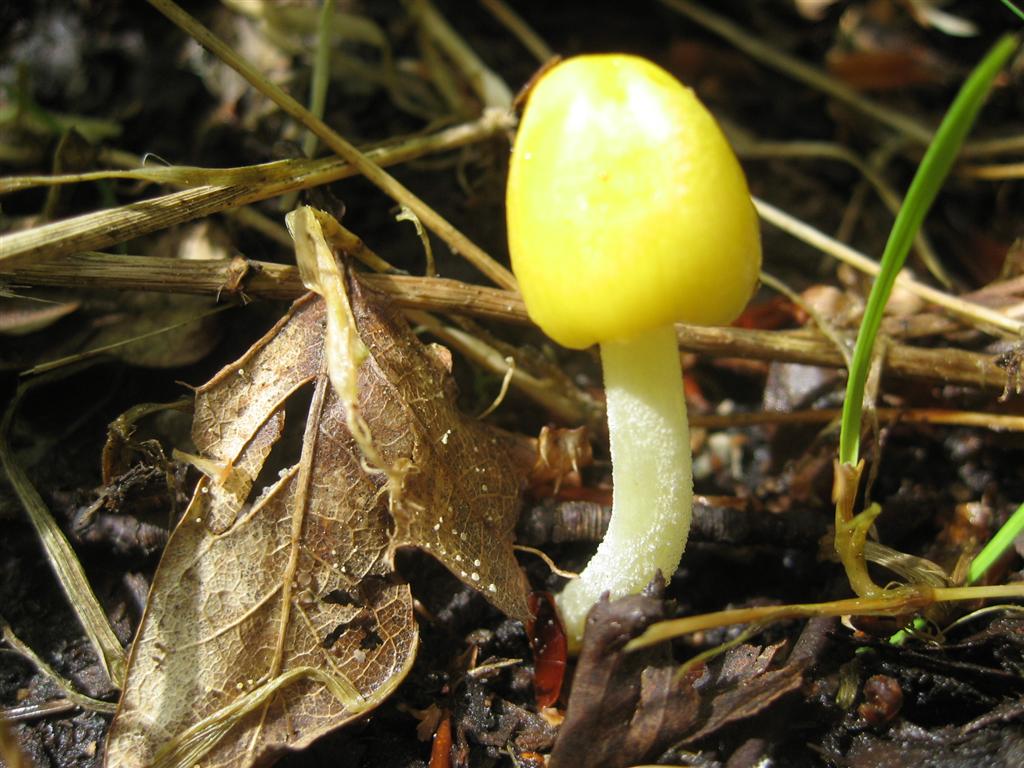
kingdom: Fungi
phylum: Basidiomycota
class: Agaricomycetes
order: Agaricales
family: Bolbitiaceae
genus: Bolbitius
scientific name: Bolbitius titubans
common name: almindelig gulhat
